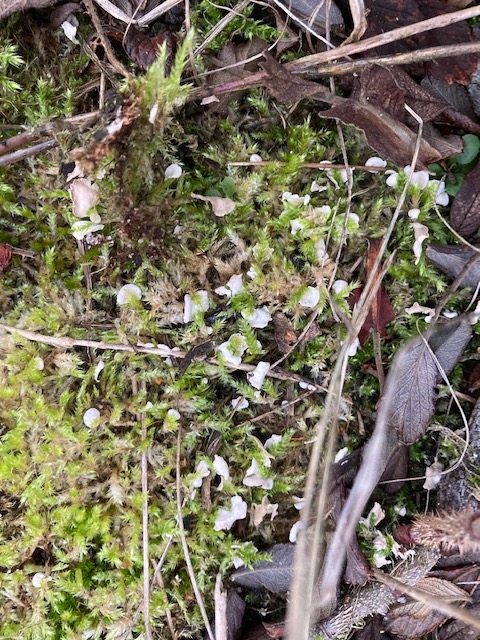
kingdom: Fungi
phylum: Basidiomycota
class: Agaricomycetes
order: Agaricales
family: Hygrophoraceae
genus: Arrhenia
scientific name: Arrhenia retiruga
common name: lille fontænehat
